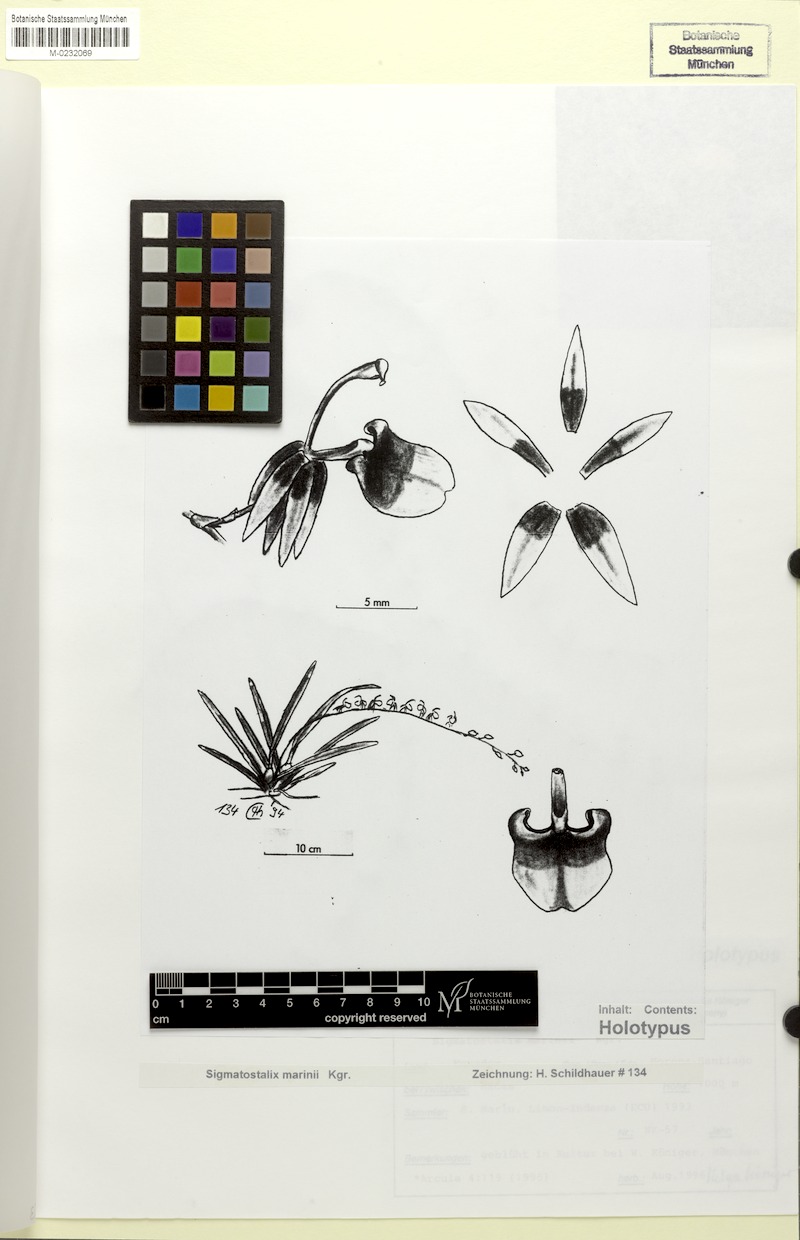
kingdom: Plantae
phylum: Tracheophyta
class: Liliopsida
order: Asparagales
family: Orchidaceae
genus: Oncidium
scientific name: Oncidium marinii
